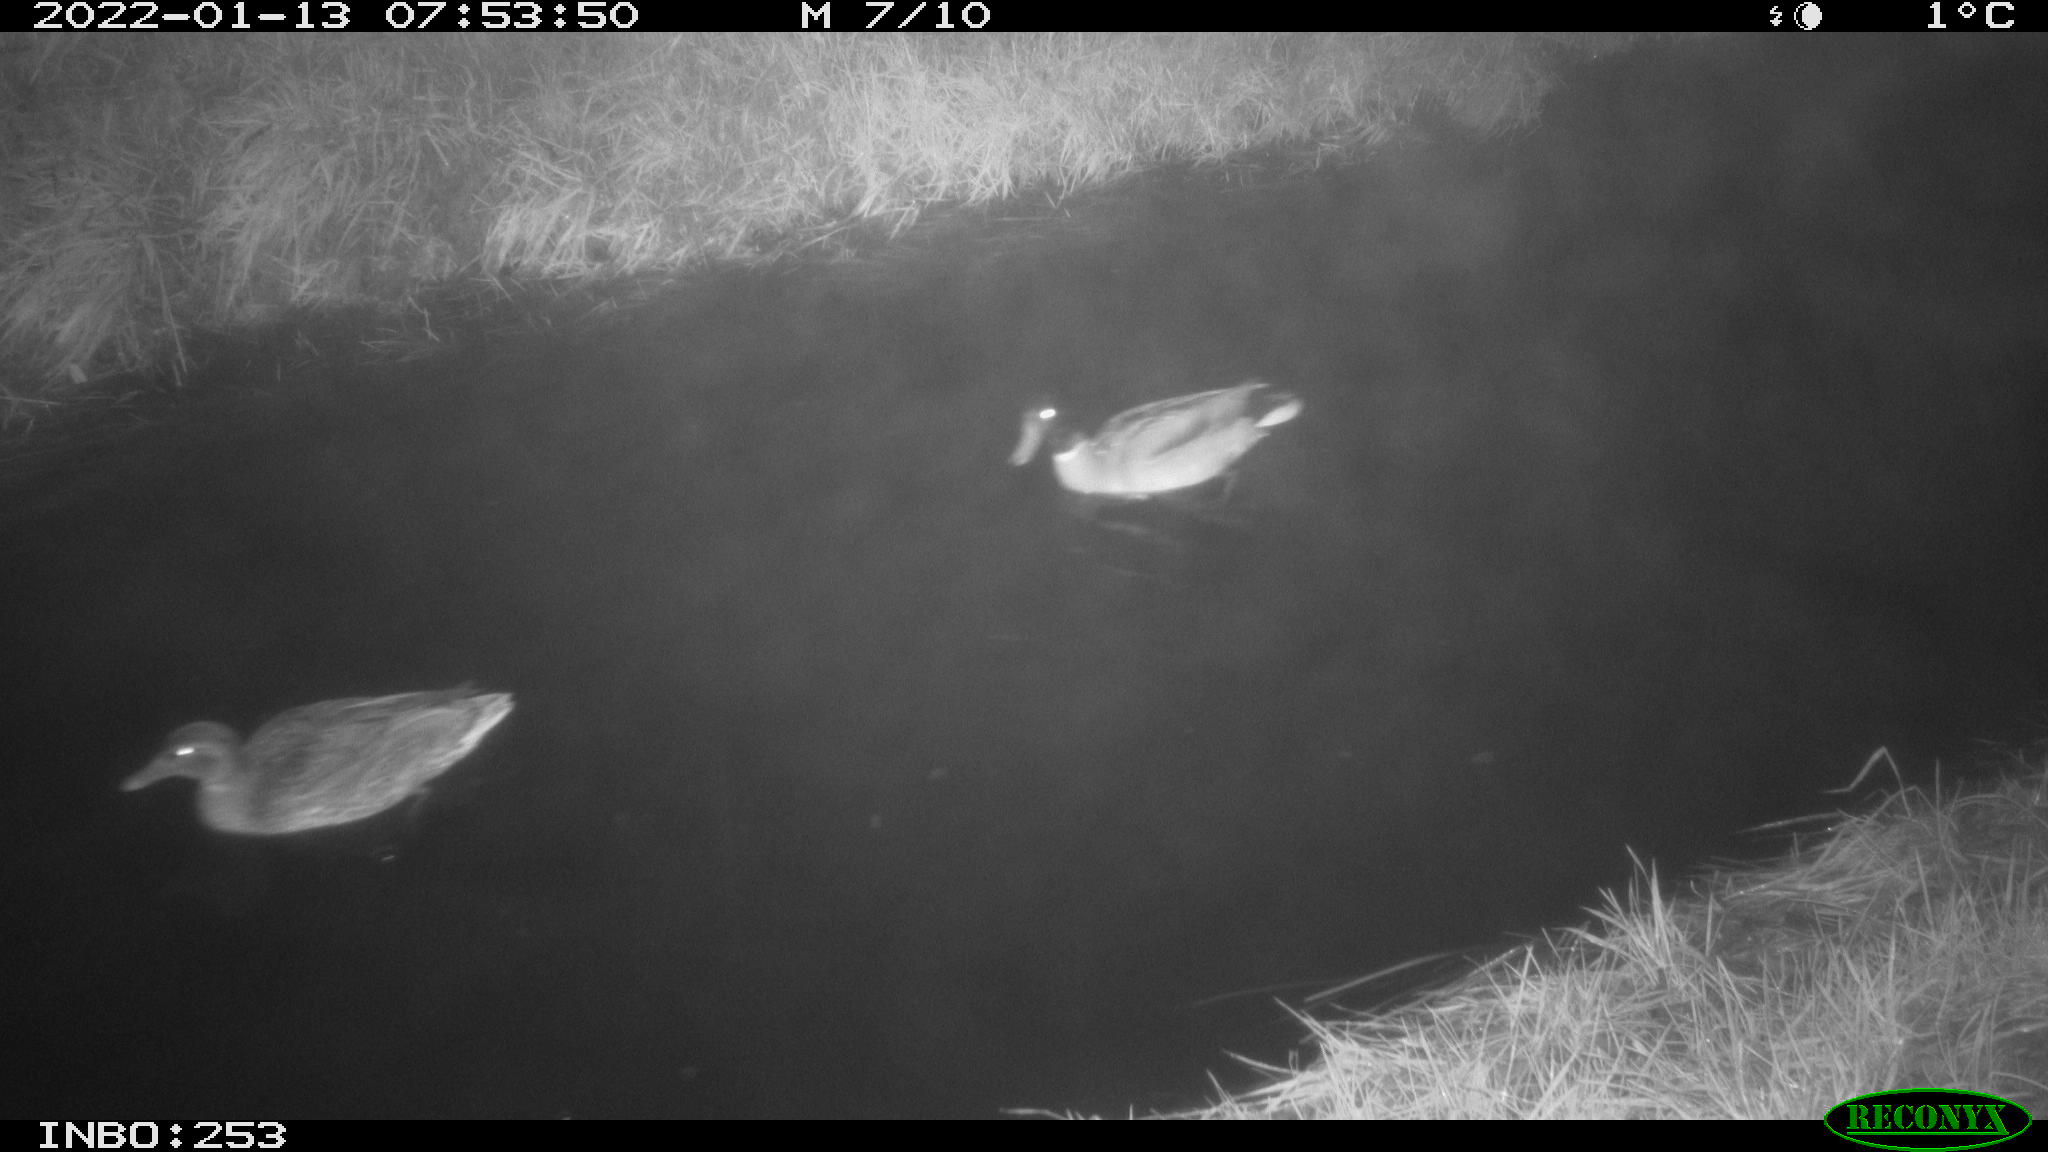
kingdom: Animalia
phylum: Chordata
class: Aves
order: Anseriformes
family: Anatidae
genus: Anas
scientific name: Anas
